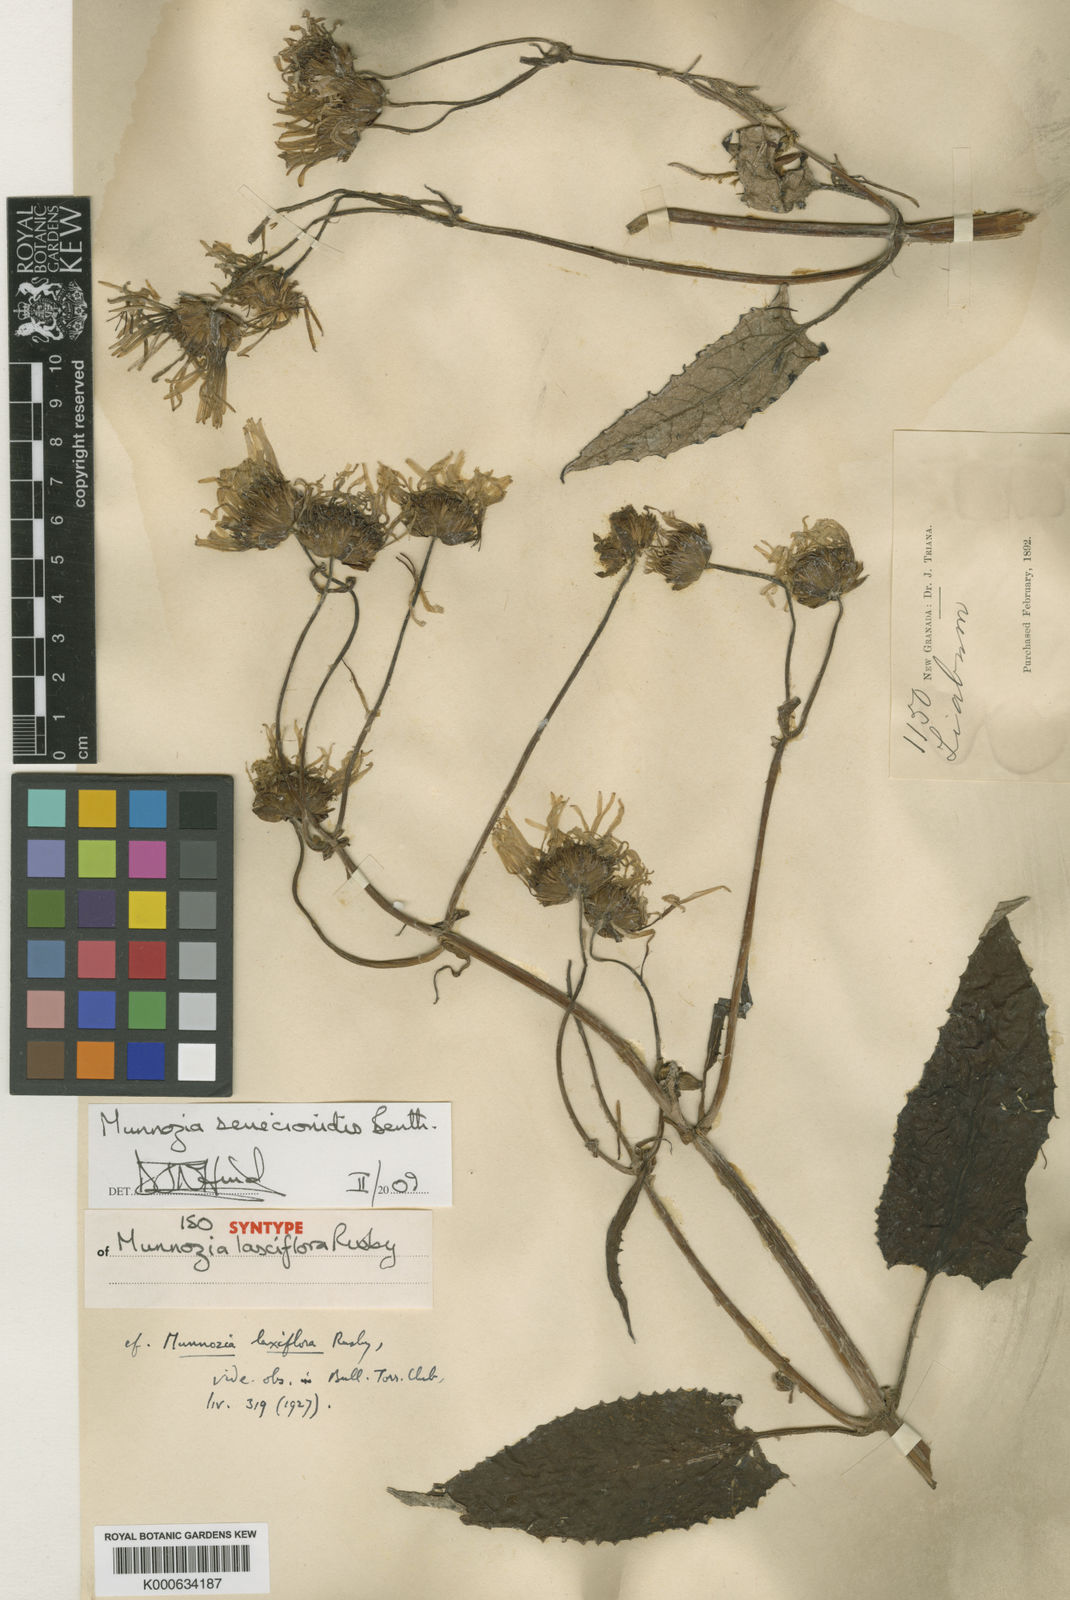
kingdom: Plantae
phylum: Tracheophyta
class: Magnoliopsida
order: Asterales
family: Asteraceae
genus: Munnozia
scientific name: Munnozia senecionidis
